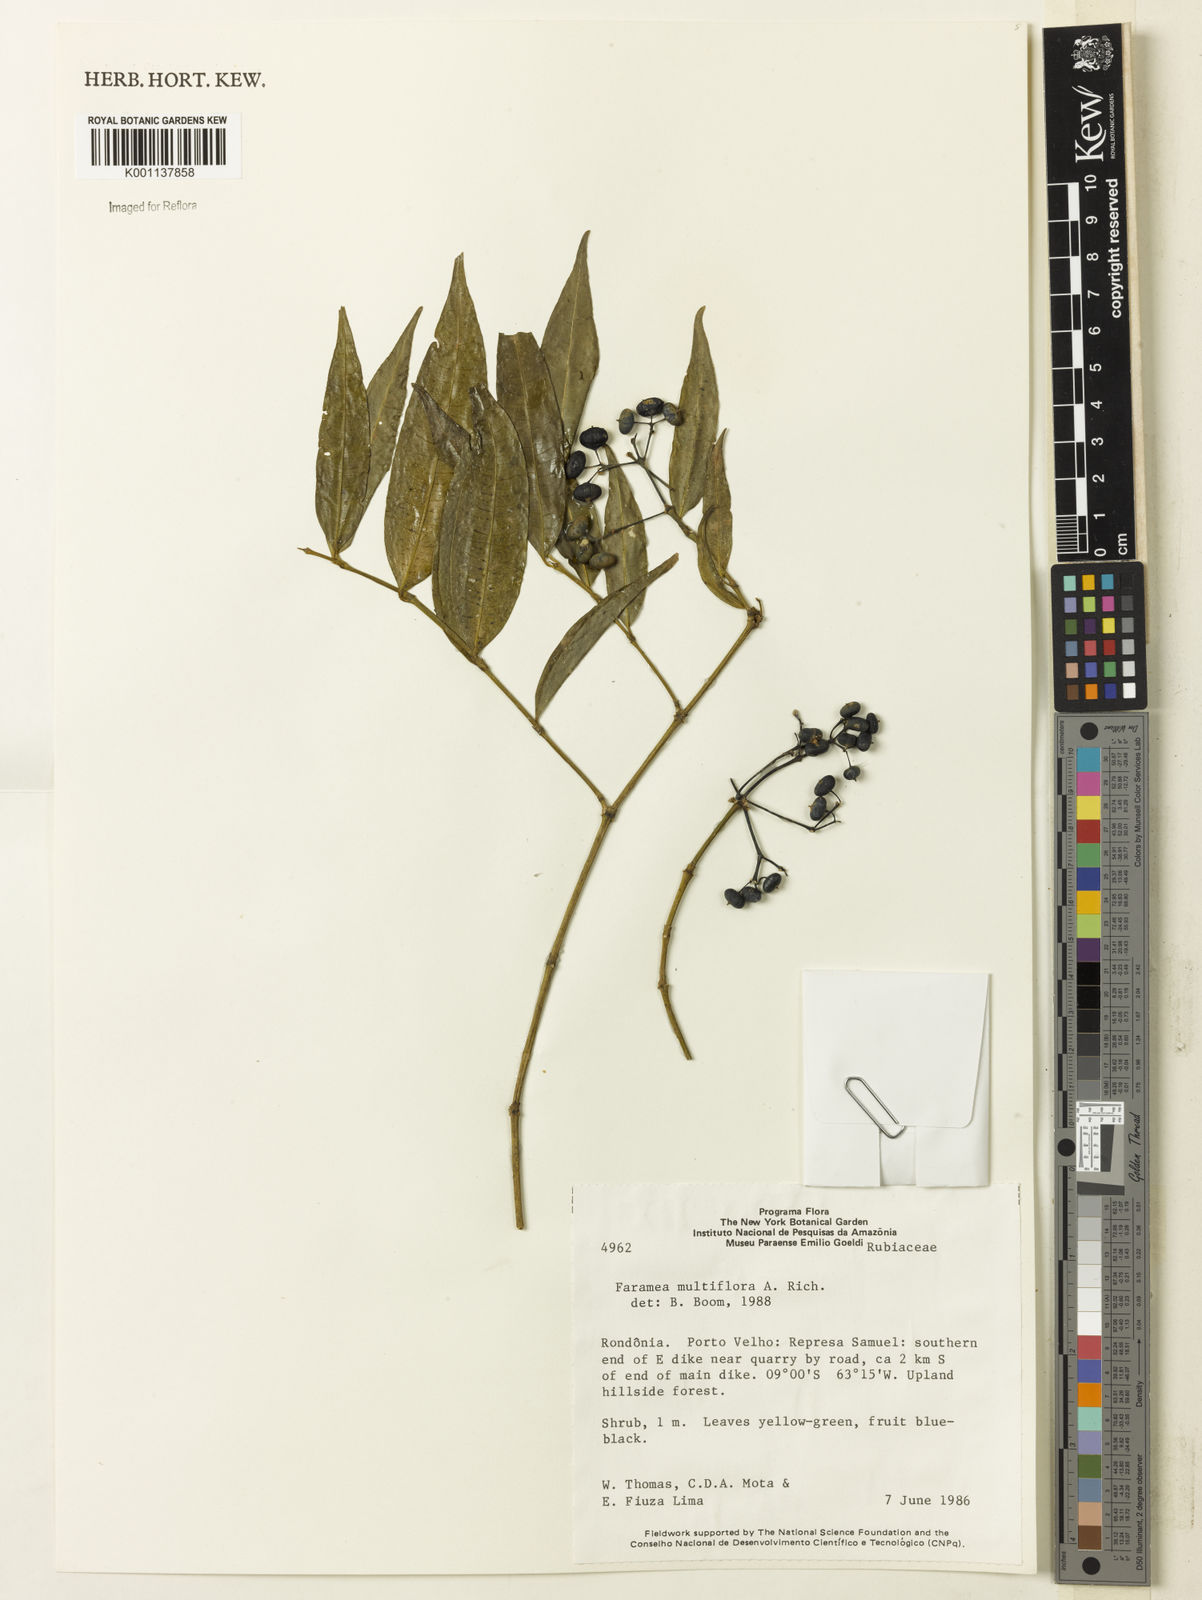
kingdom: Plantae
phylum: Tracheophyta
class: Magnoliopsida
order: Gentianales
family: Rubiaceae
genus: Faramea
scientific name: Faramea multiflora
